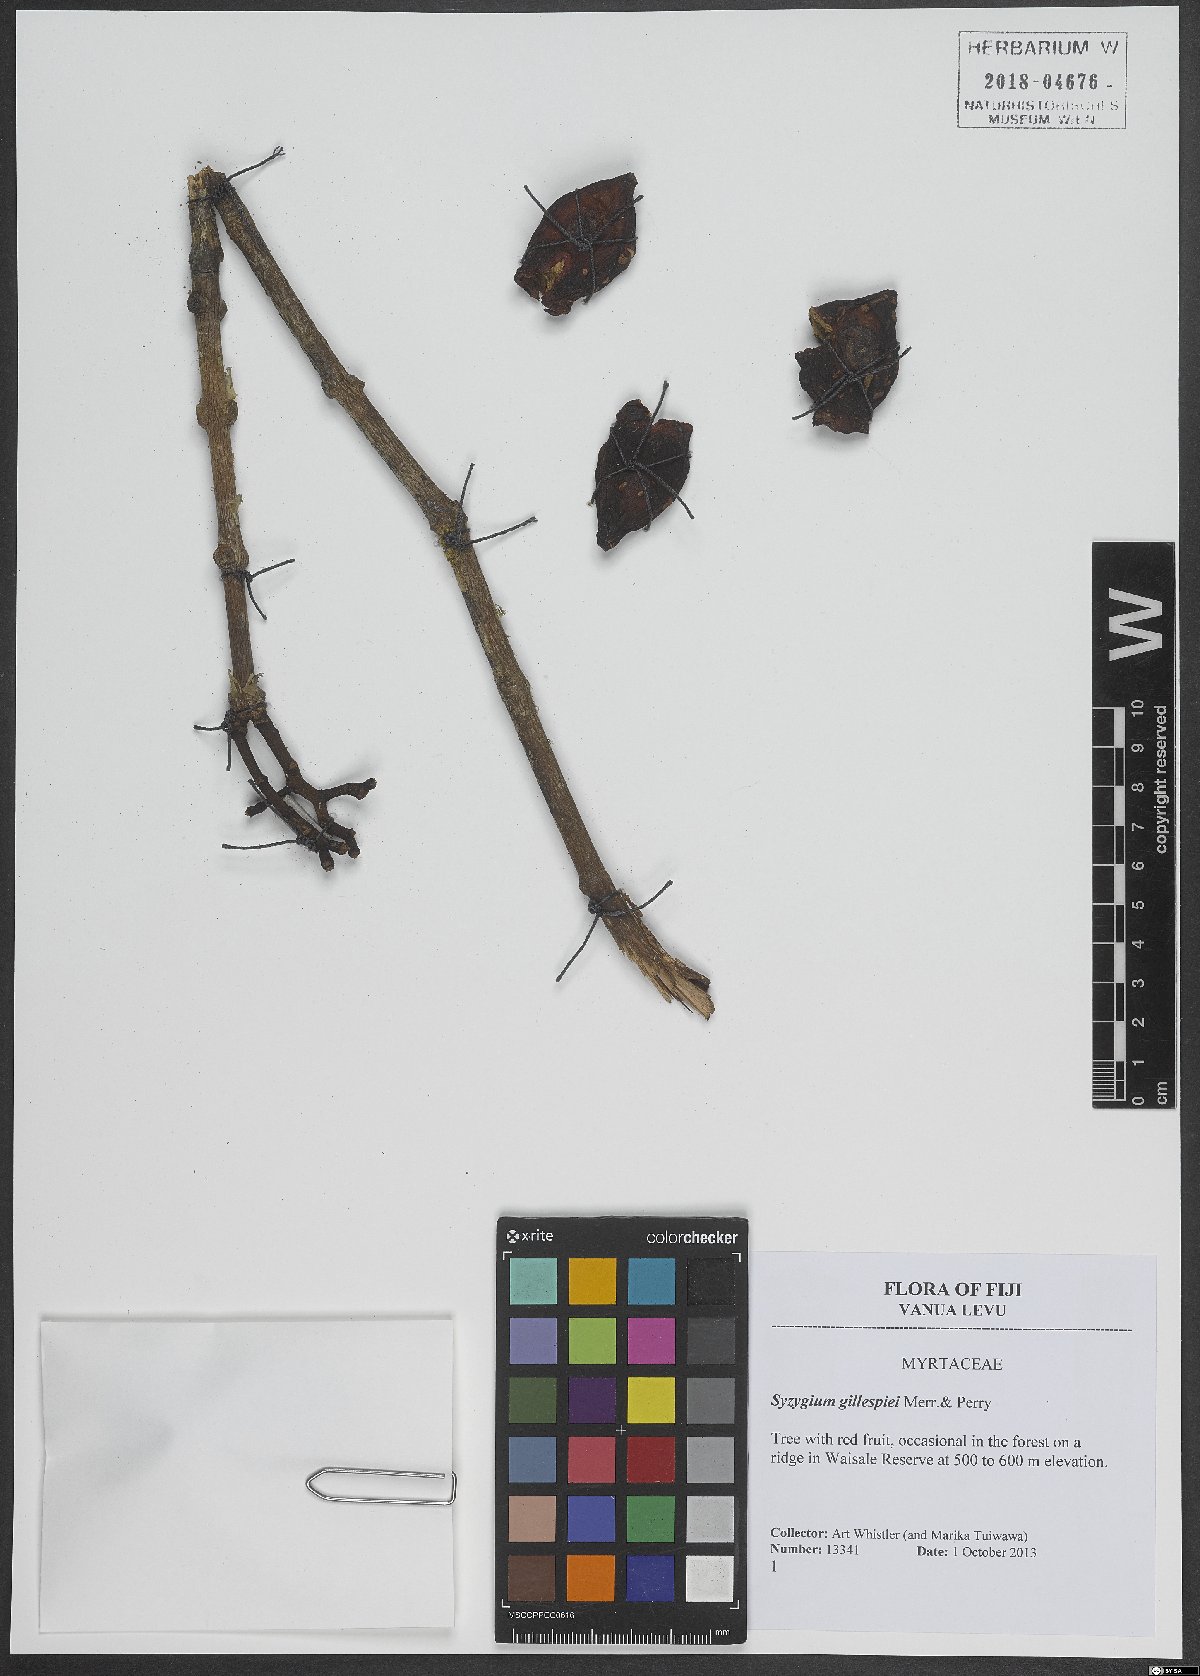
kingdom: Plantae
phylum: Tracheophyta
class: Magnoliopsida
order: Myrtales
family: Myrtaceae
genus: Syzygium
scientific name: Syzygium gillespiei
